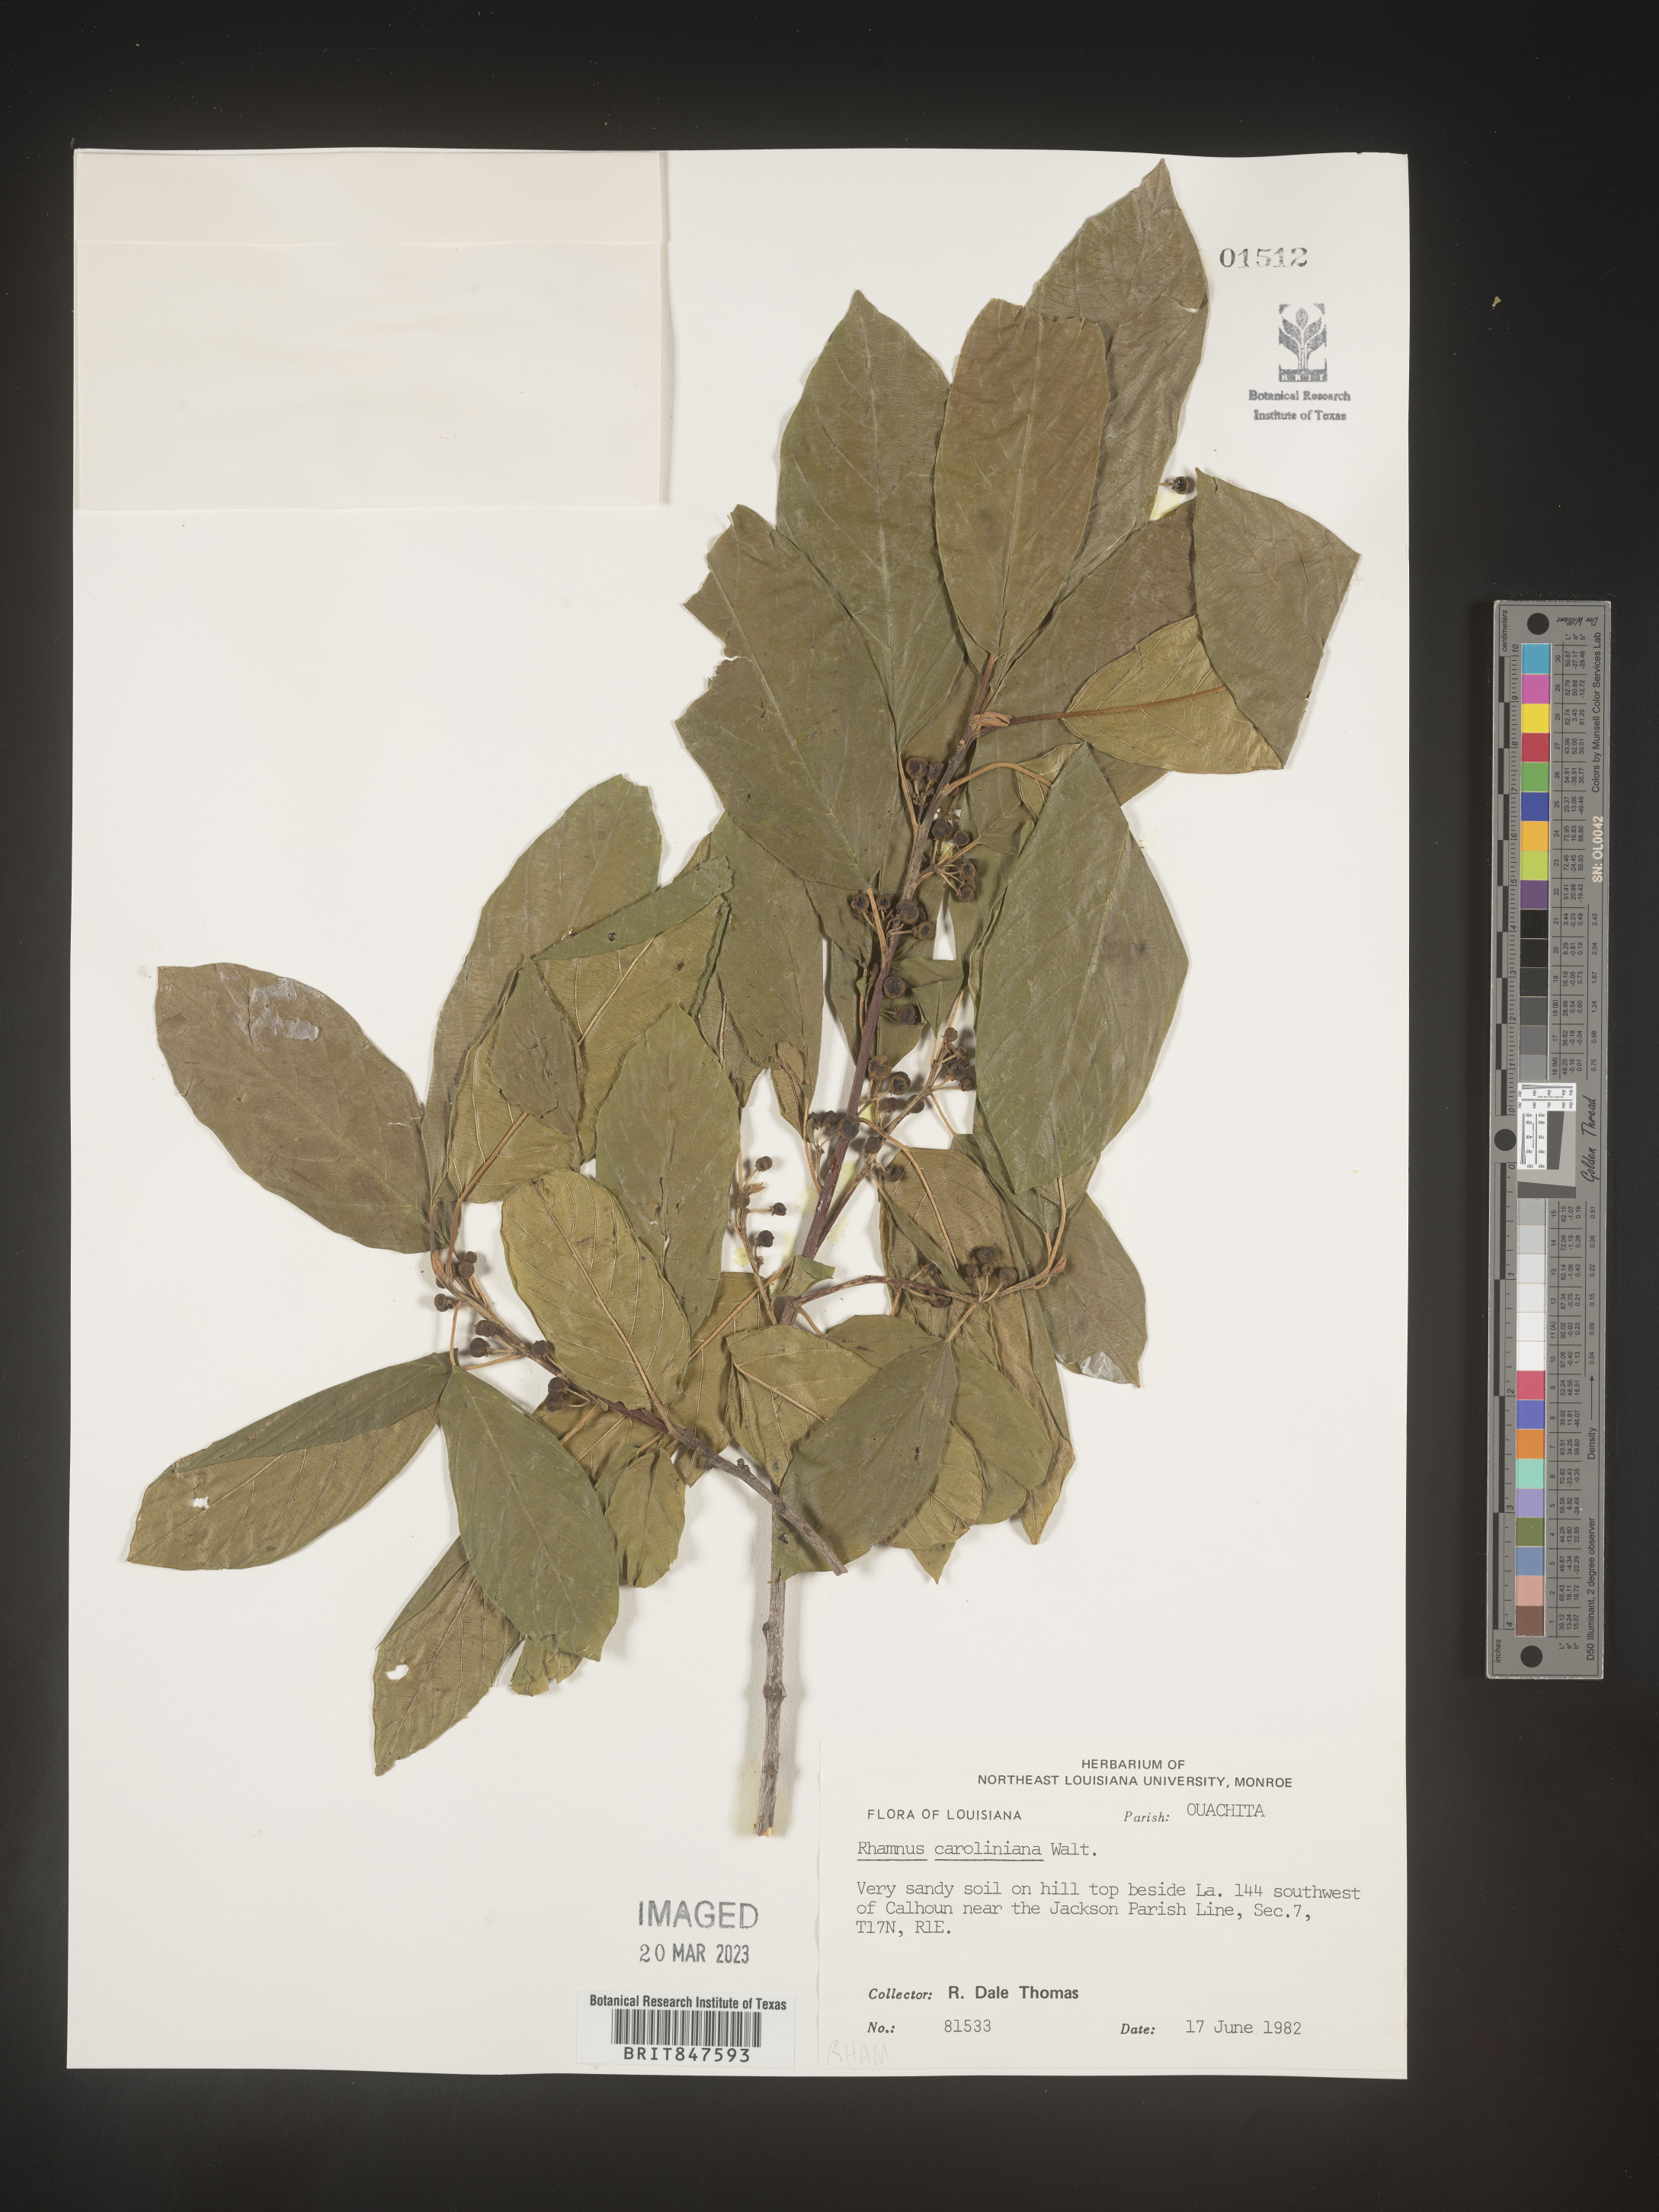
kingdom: Plantae
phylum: Tracheophyta
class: Magnoliopsida
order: Rosales
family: Rhamnaceae
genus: Frangula
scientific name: Frangula caroliniana
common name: Carolina buckthorn
